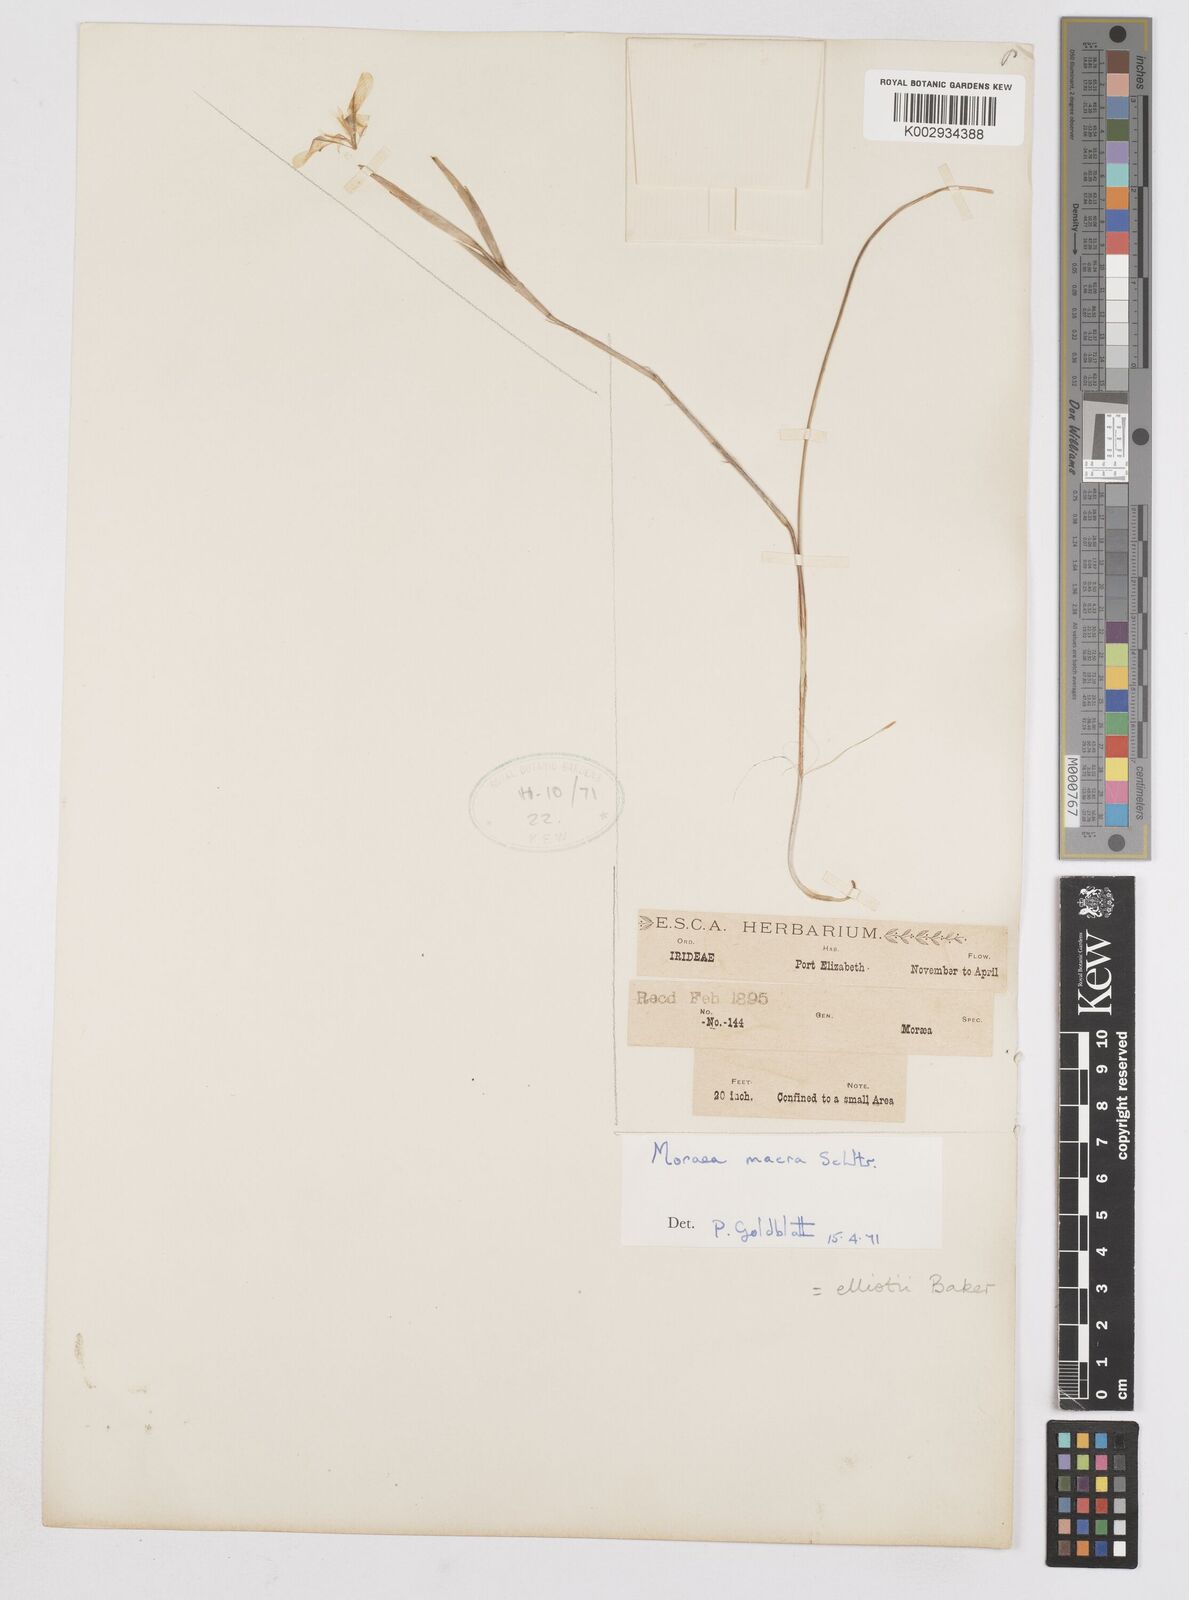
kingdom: Plantae
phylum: Tracheophyta
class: Liliopsida
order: Asparagales
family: Iridaceae
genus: Moraea
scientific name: Moraea elliotii
